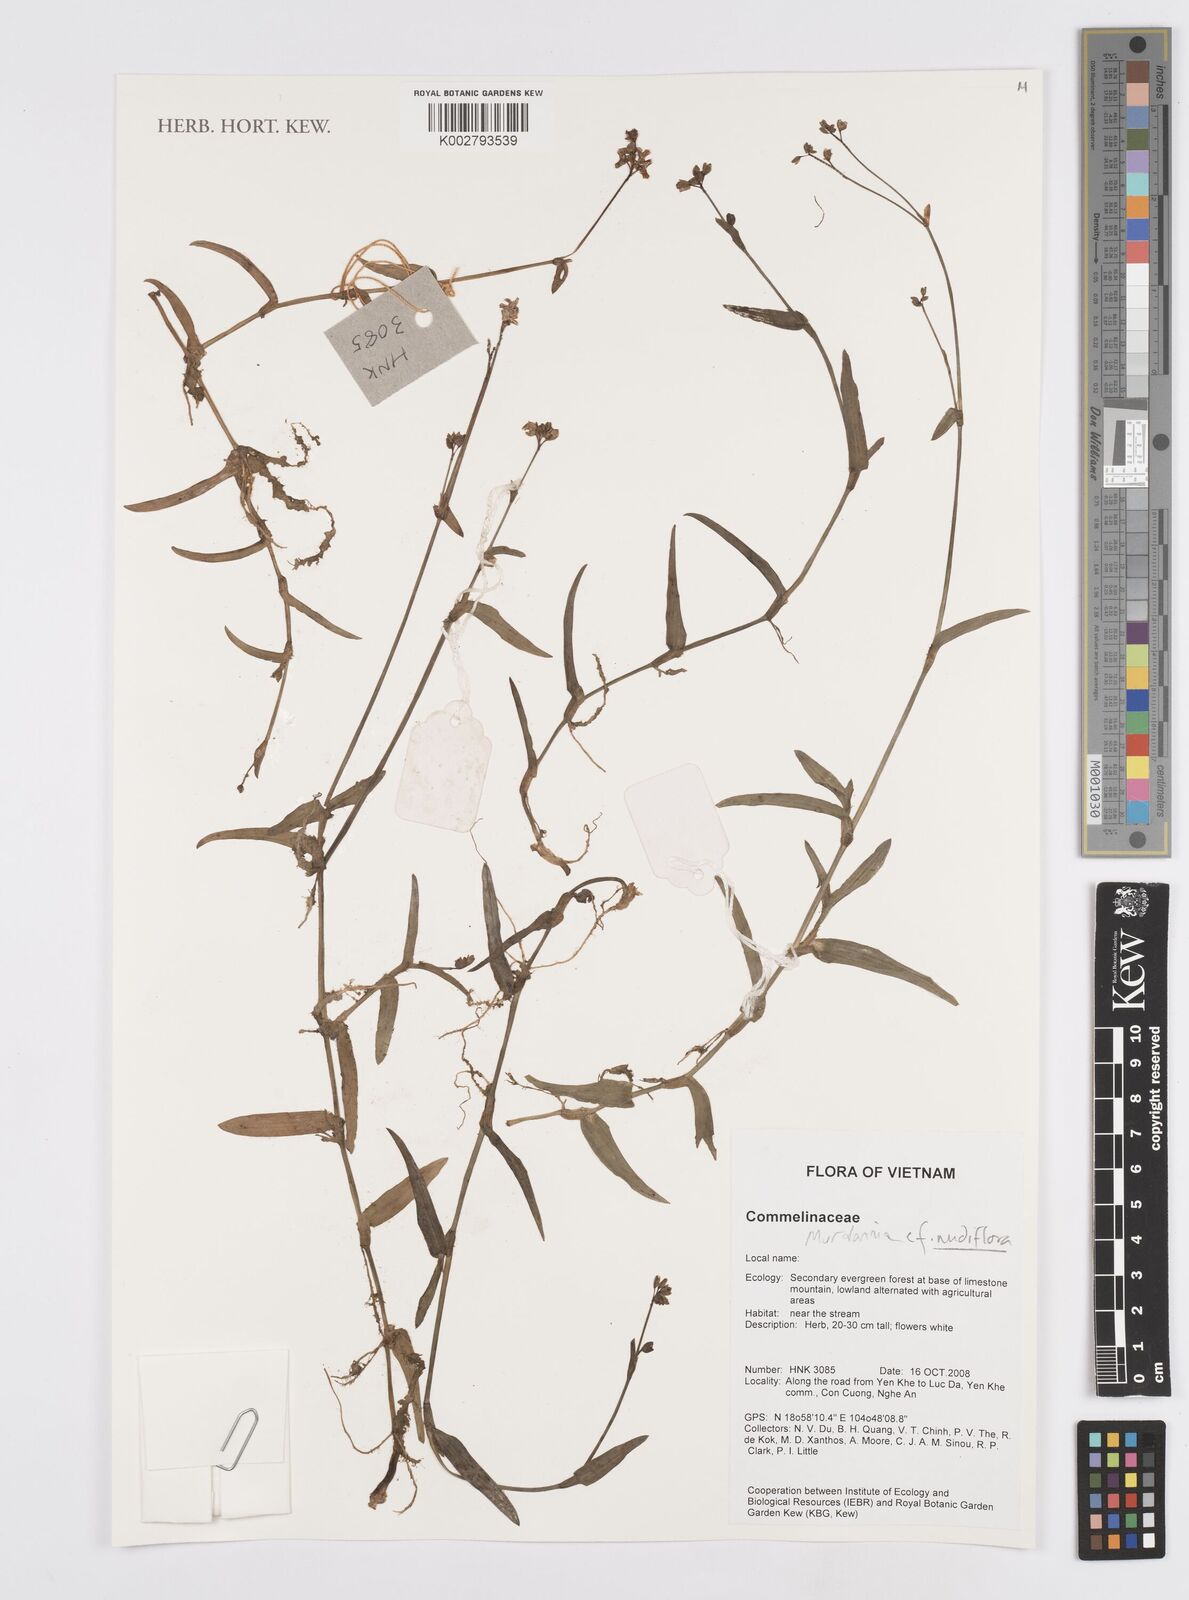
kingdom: Plantae
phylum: Tracheophyta
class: Liliopsida
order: Commelinales
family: Commelinaceae
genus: Murdannia
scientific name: Murdannia
